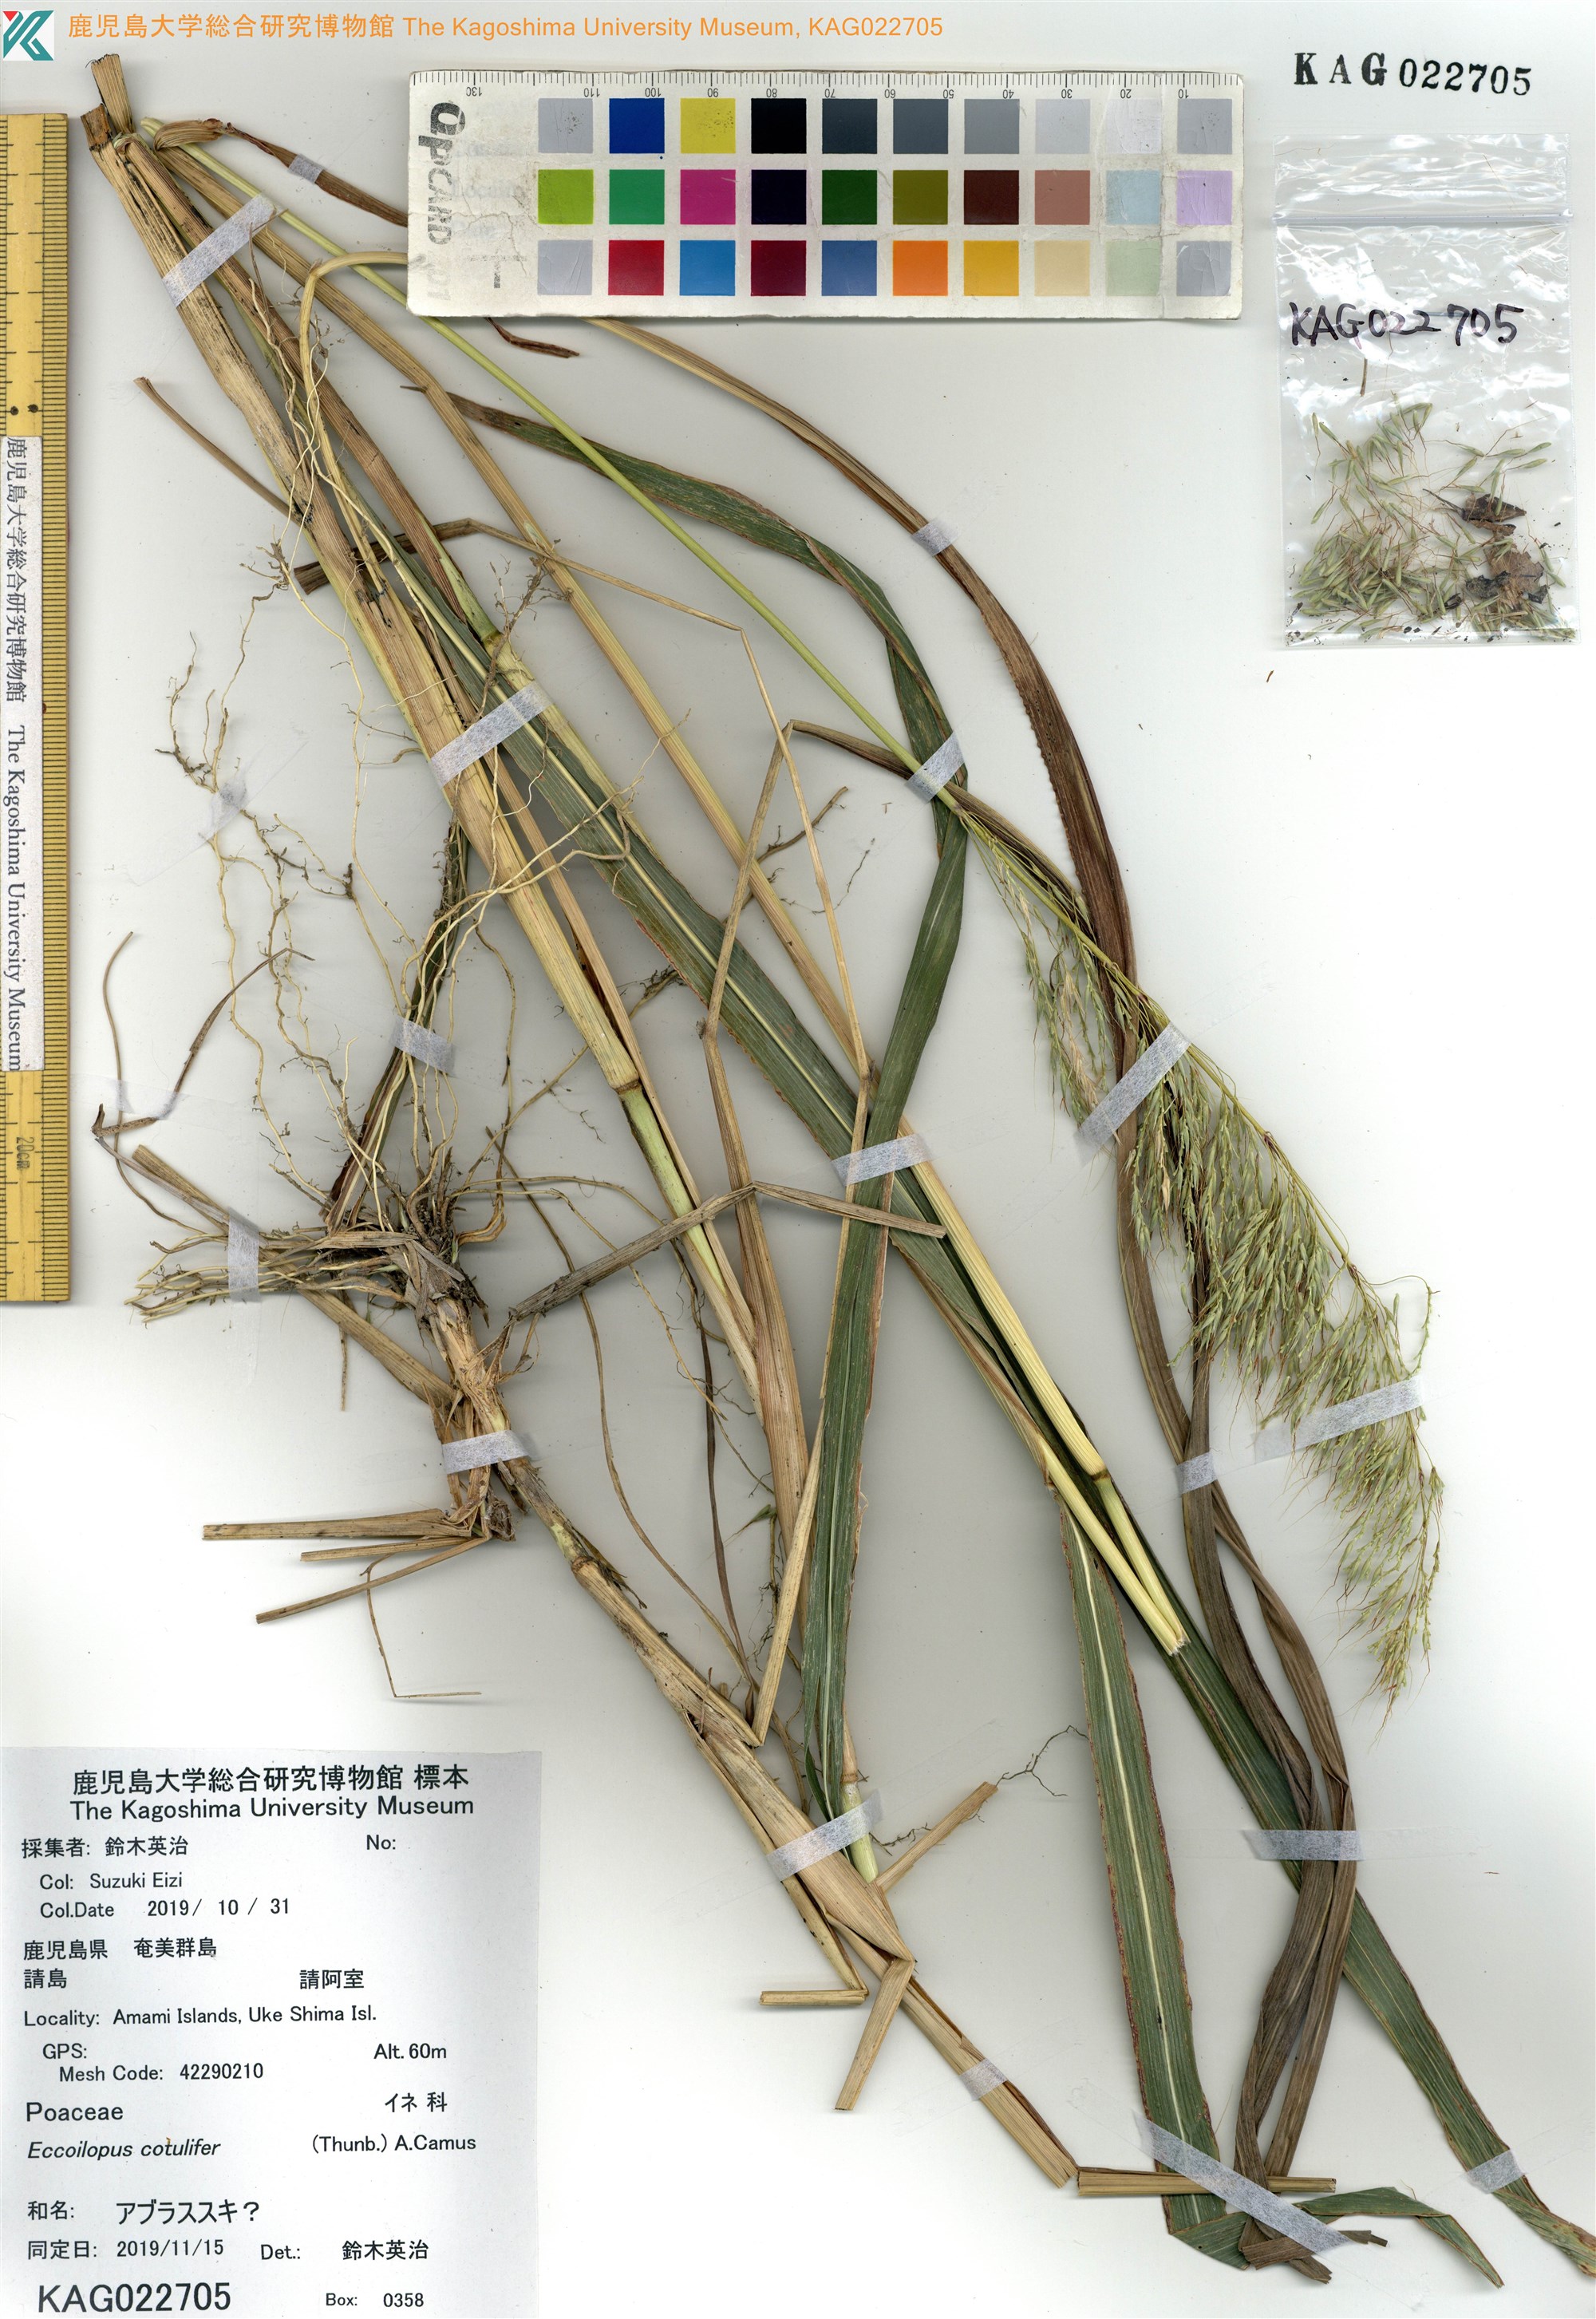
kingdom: Plantae
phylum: Tracheophyta
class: Liliopsida
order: Poales
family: Poaceae
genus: Spodiopogon
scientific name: Spodiopogon
